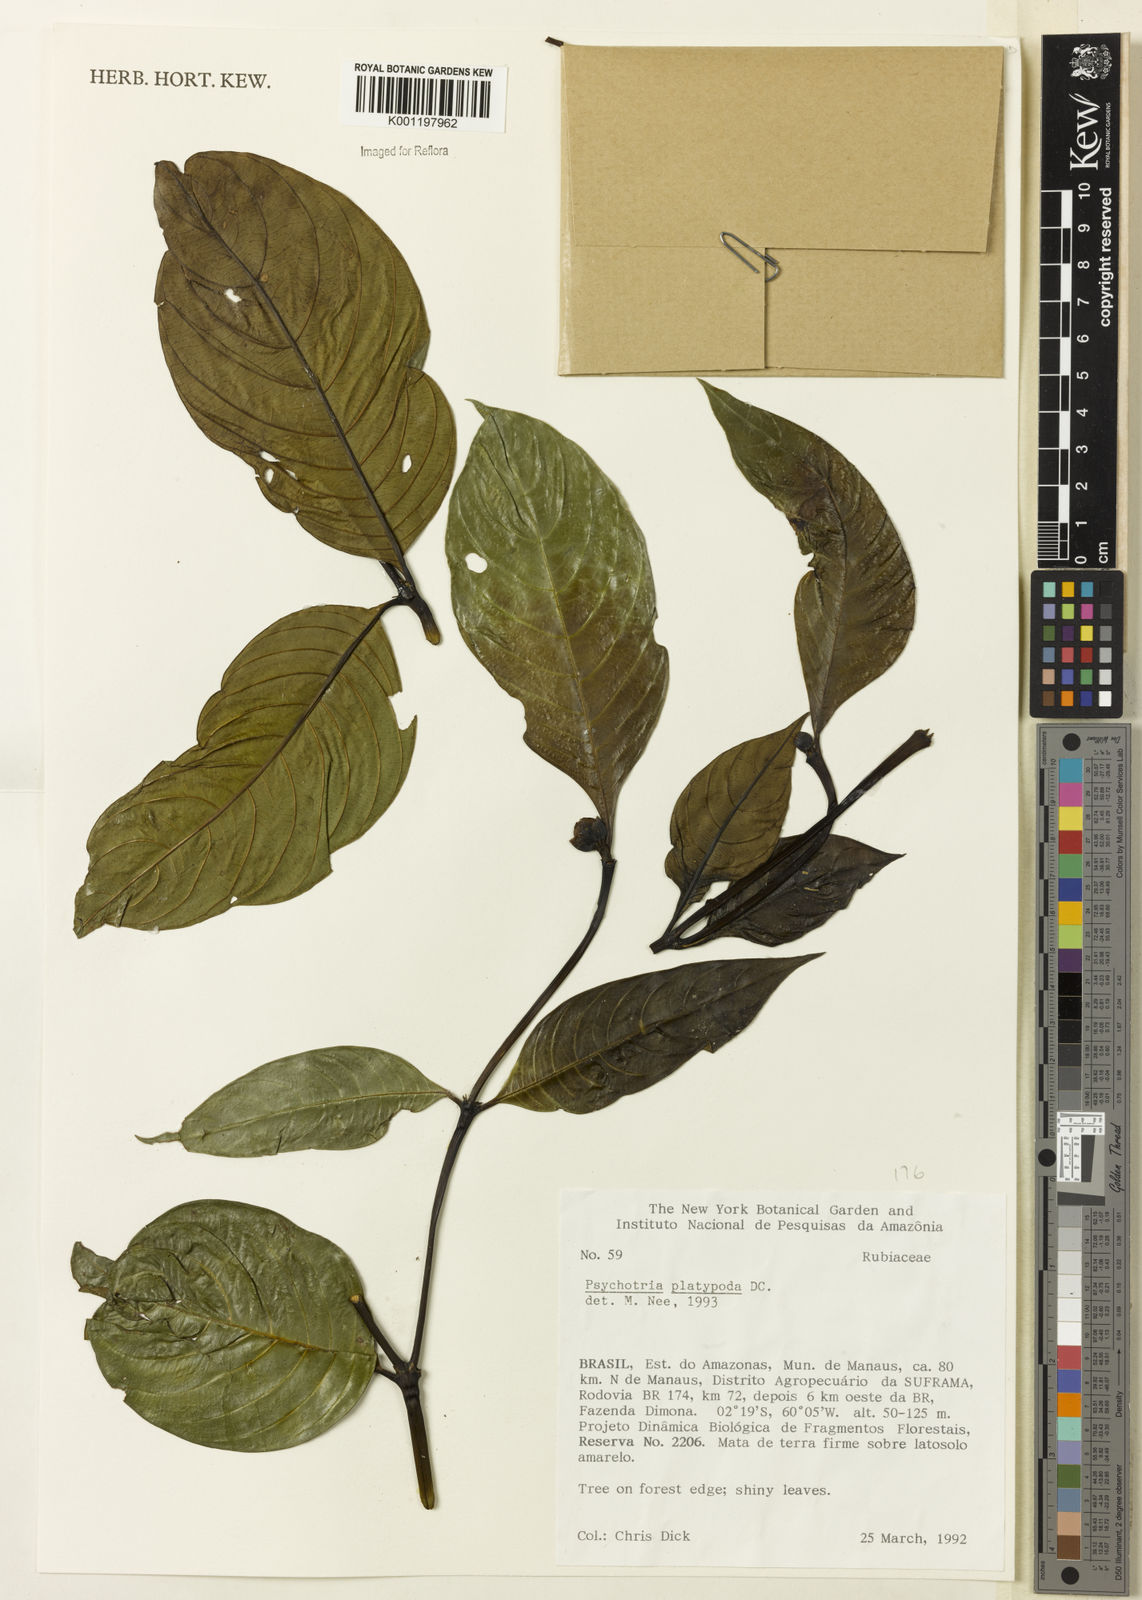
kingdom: Plantae
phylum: Tracheophyta
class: Magnoliopsida
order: Gentianales
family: Rubiaceae
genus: Palicourea
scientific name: Palicourea dichotoma
